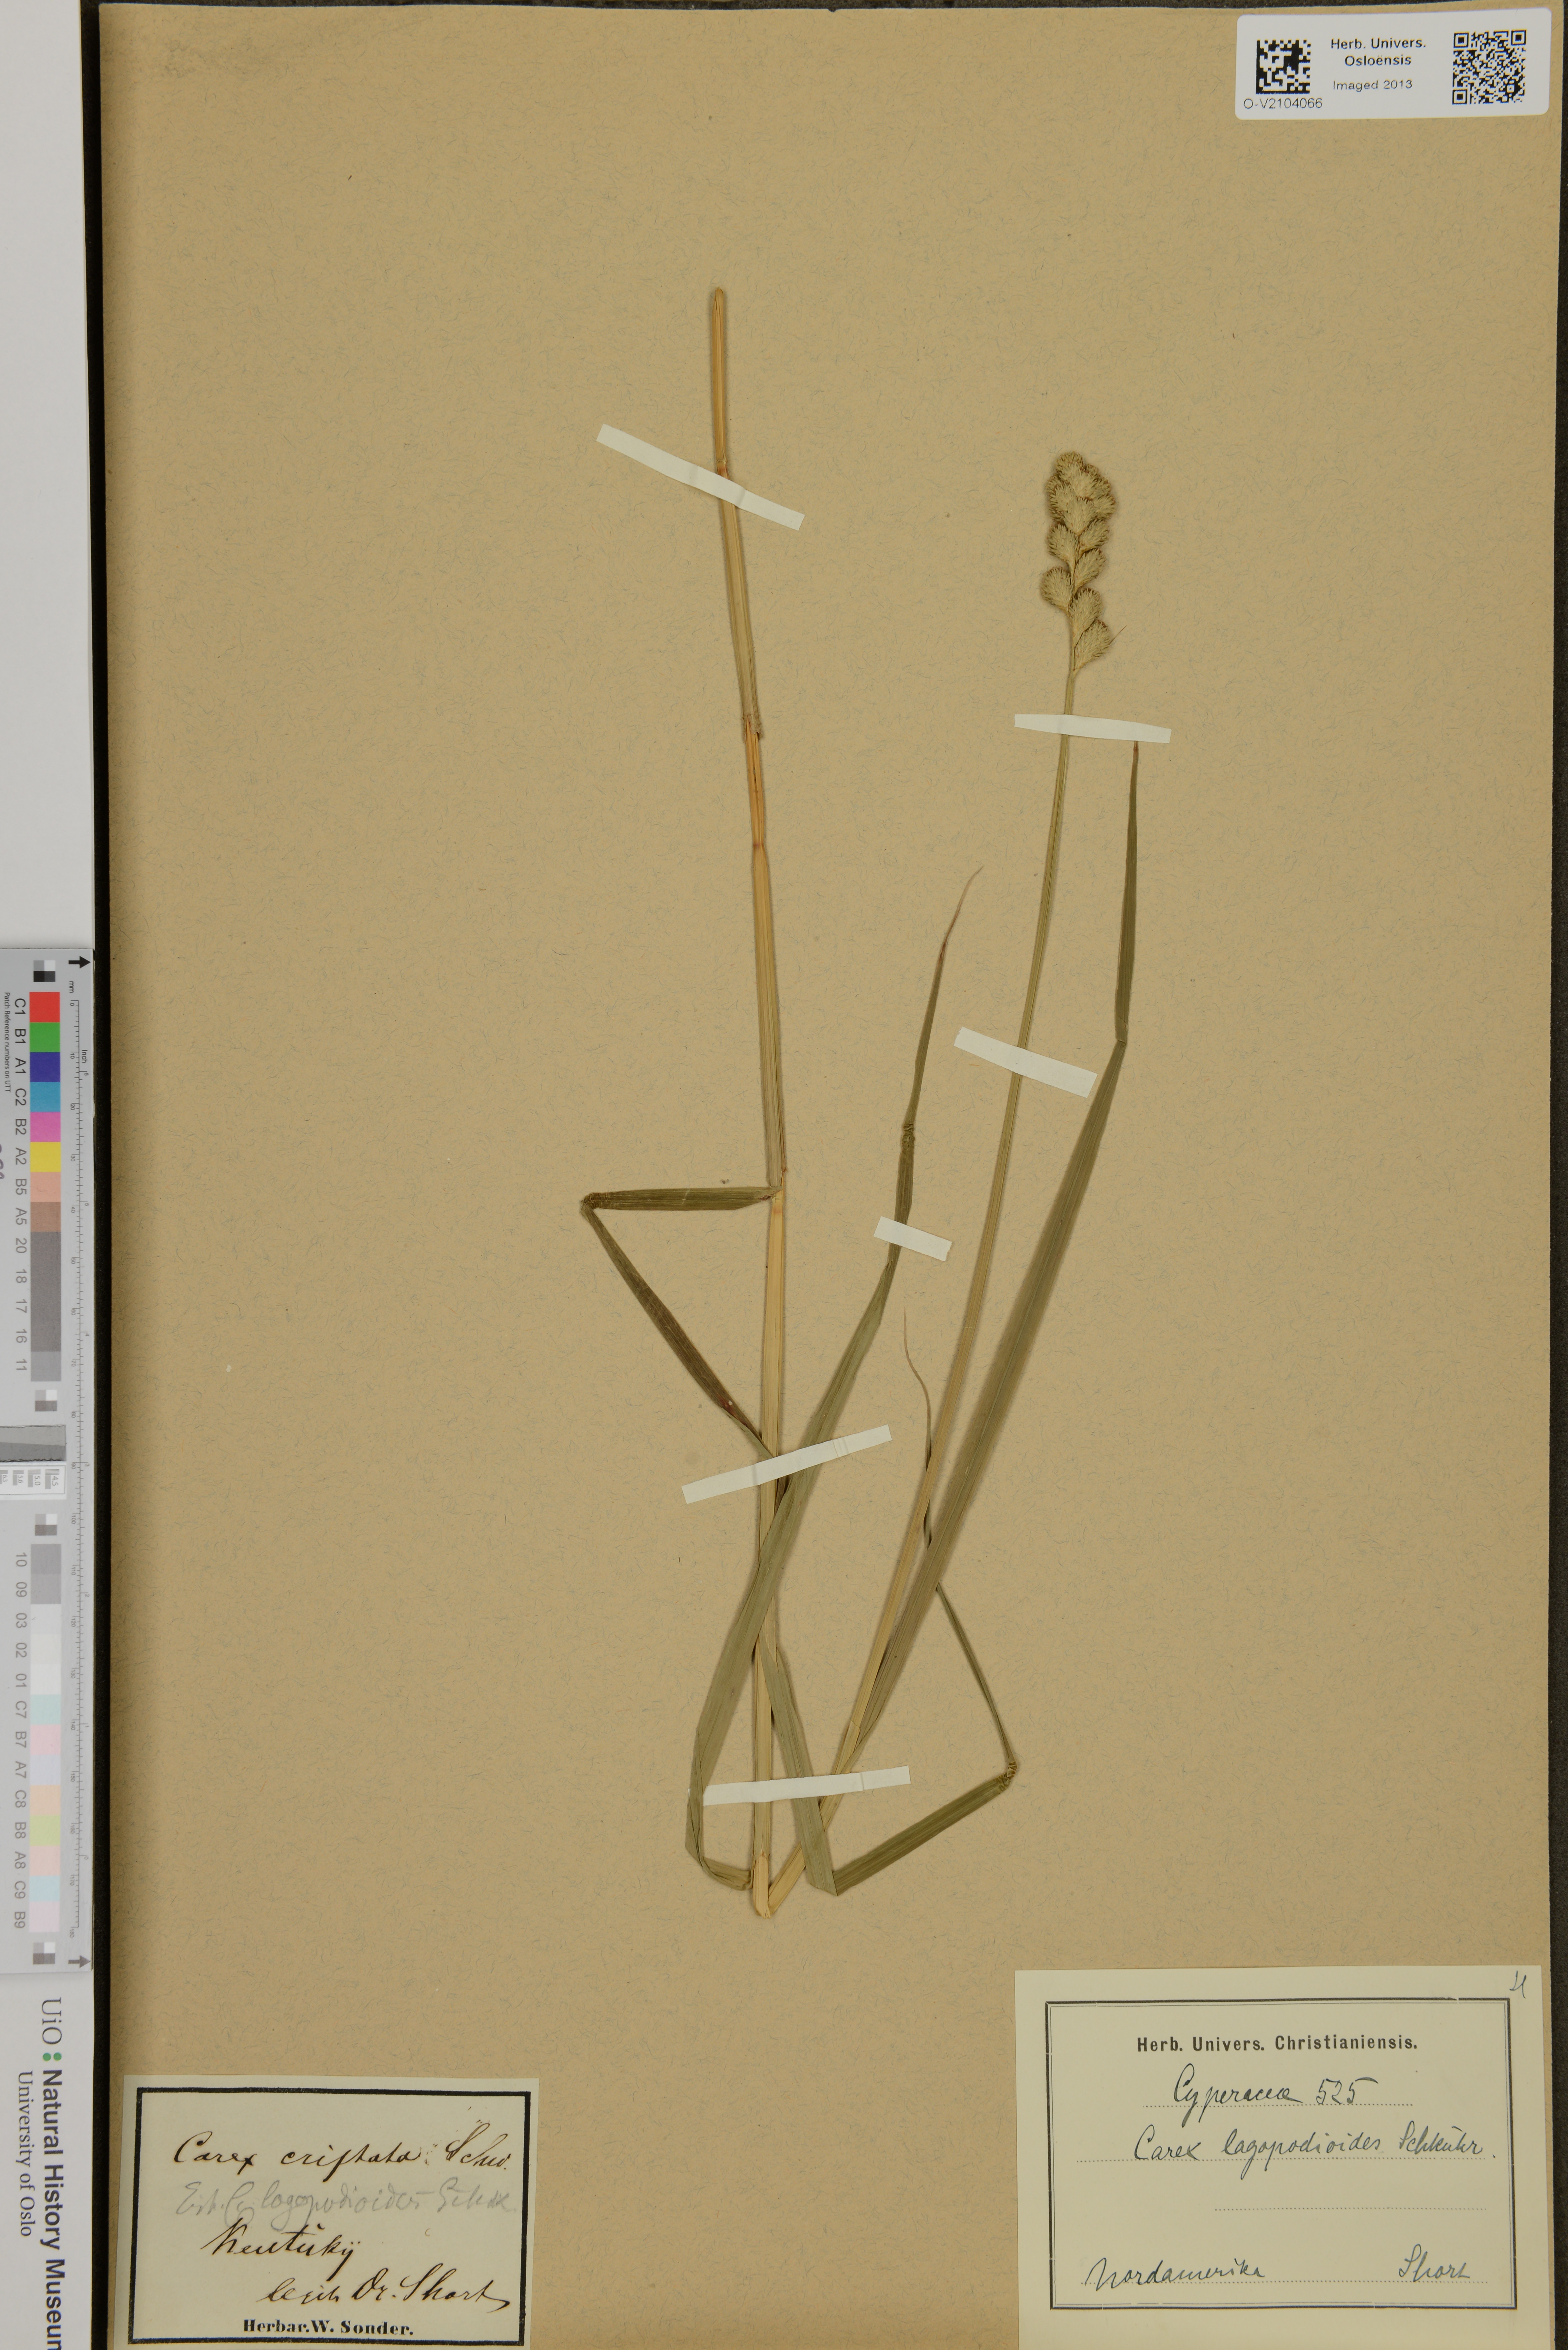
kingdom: Plantae
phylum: Tracheophyta
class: Liliopsida
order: Poales
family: Cyperaceae
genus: Carex
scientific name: Carex lagopodioides
